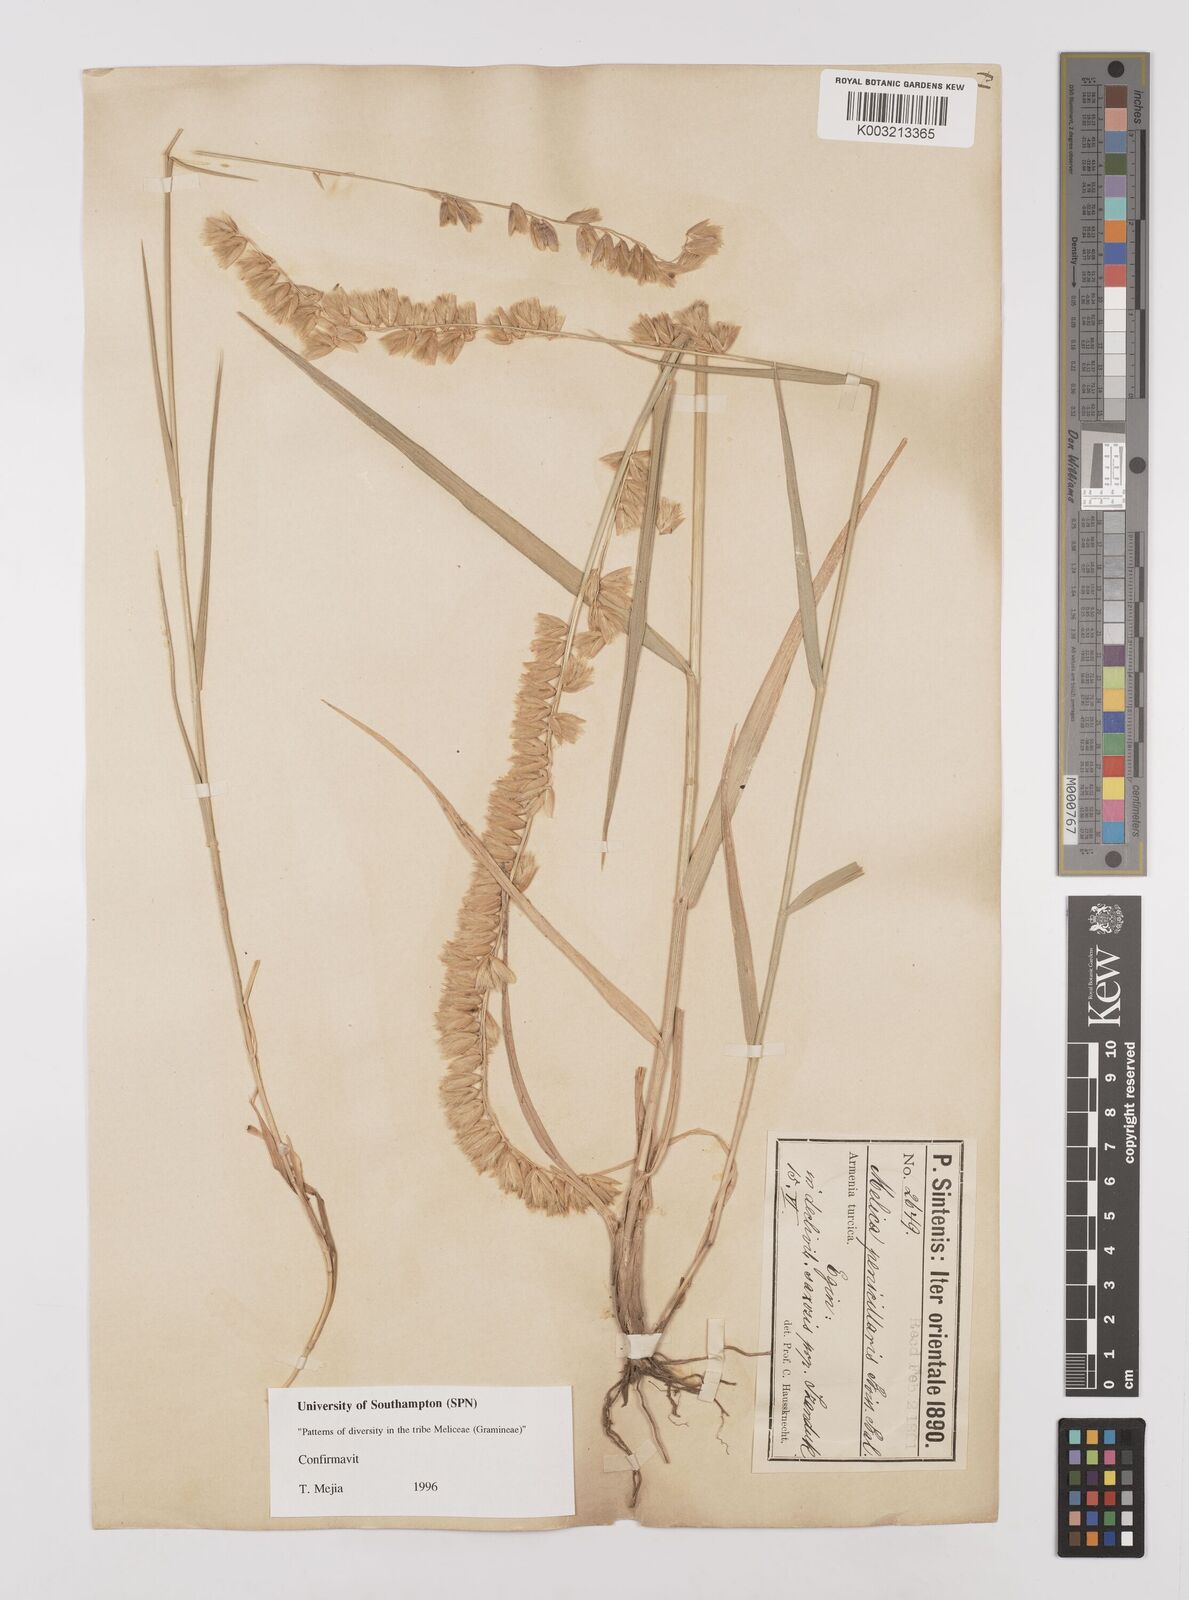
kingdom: Plantae
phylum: Tracheophyta
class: Liliopsida
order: Poales
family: Poaceae
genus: Melica
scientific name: Melica penicillaris
